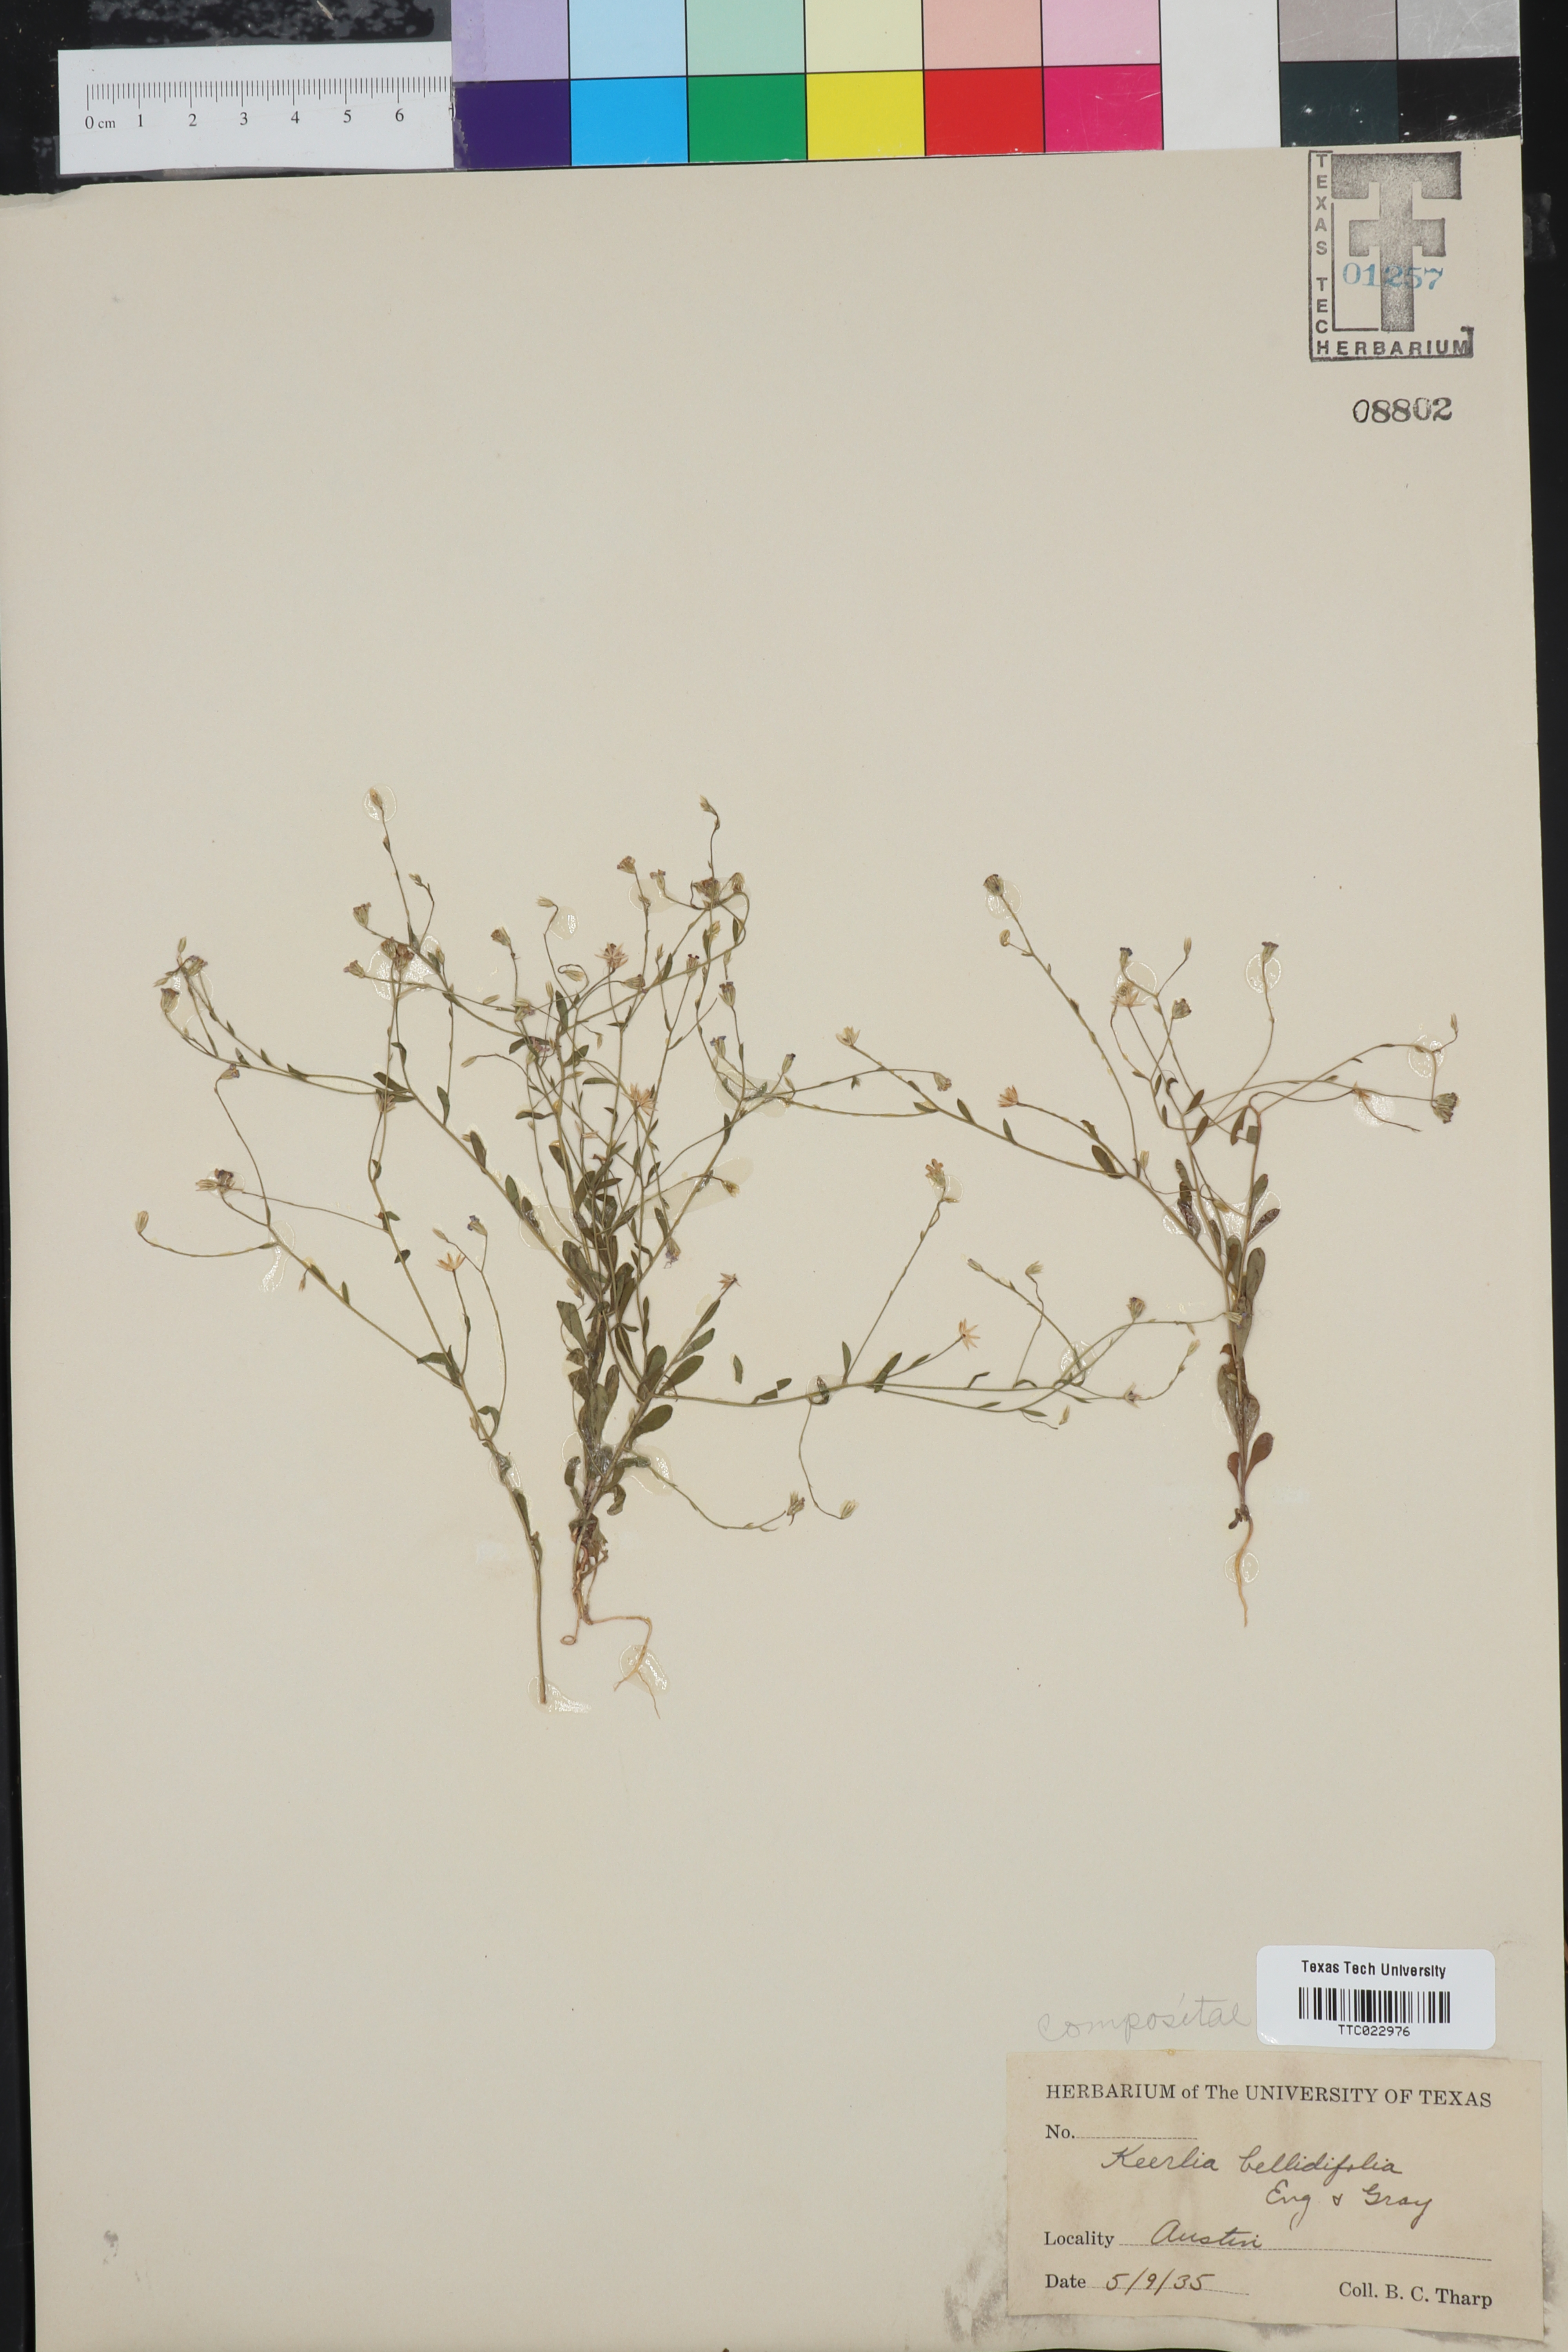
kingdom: Plantae
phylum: Tracheophyta
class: Magnoliopsida
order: Asterales
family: Asteraceae
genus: Chaetopappa
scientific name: Chaetopappa bellidifolia
